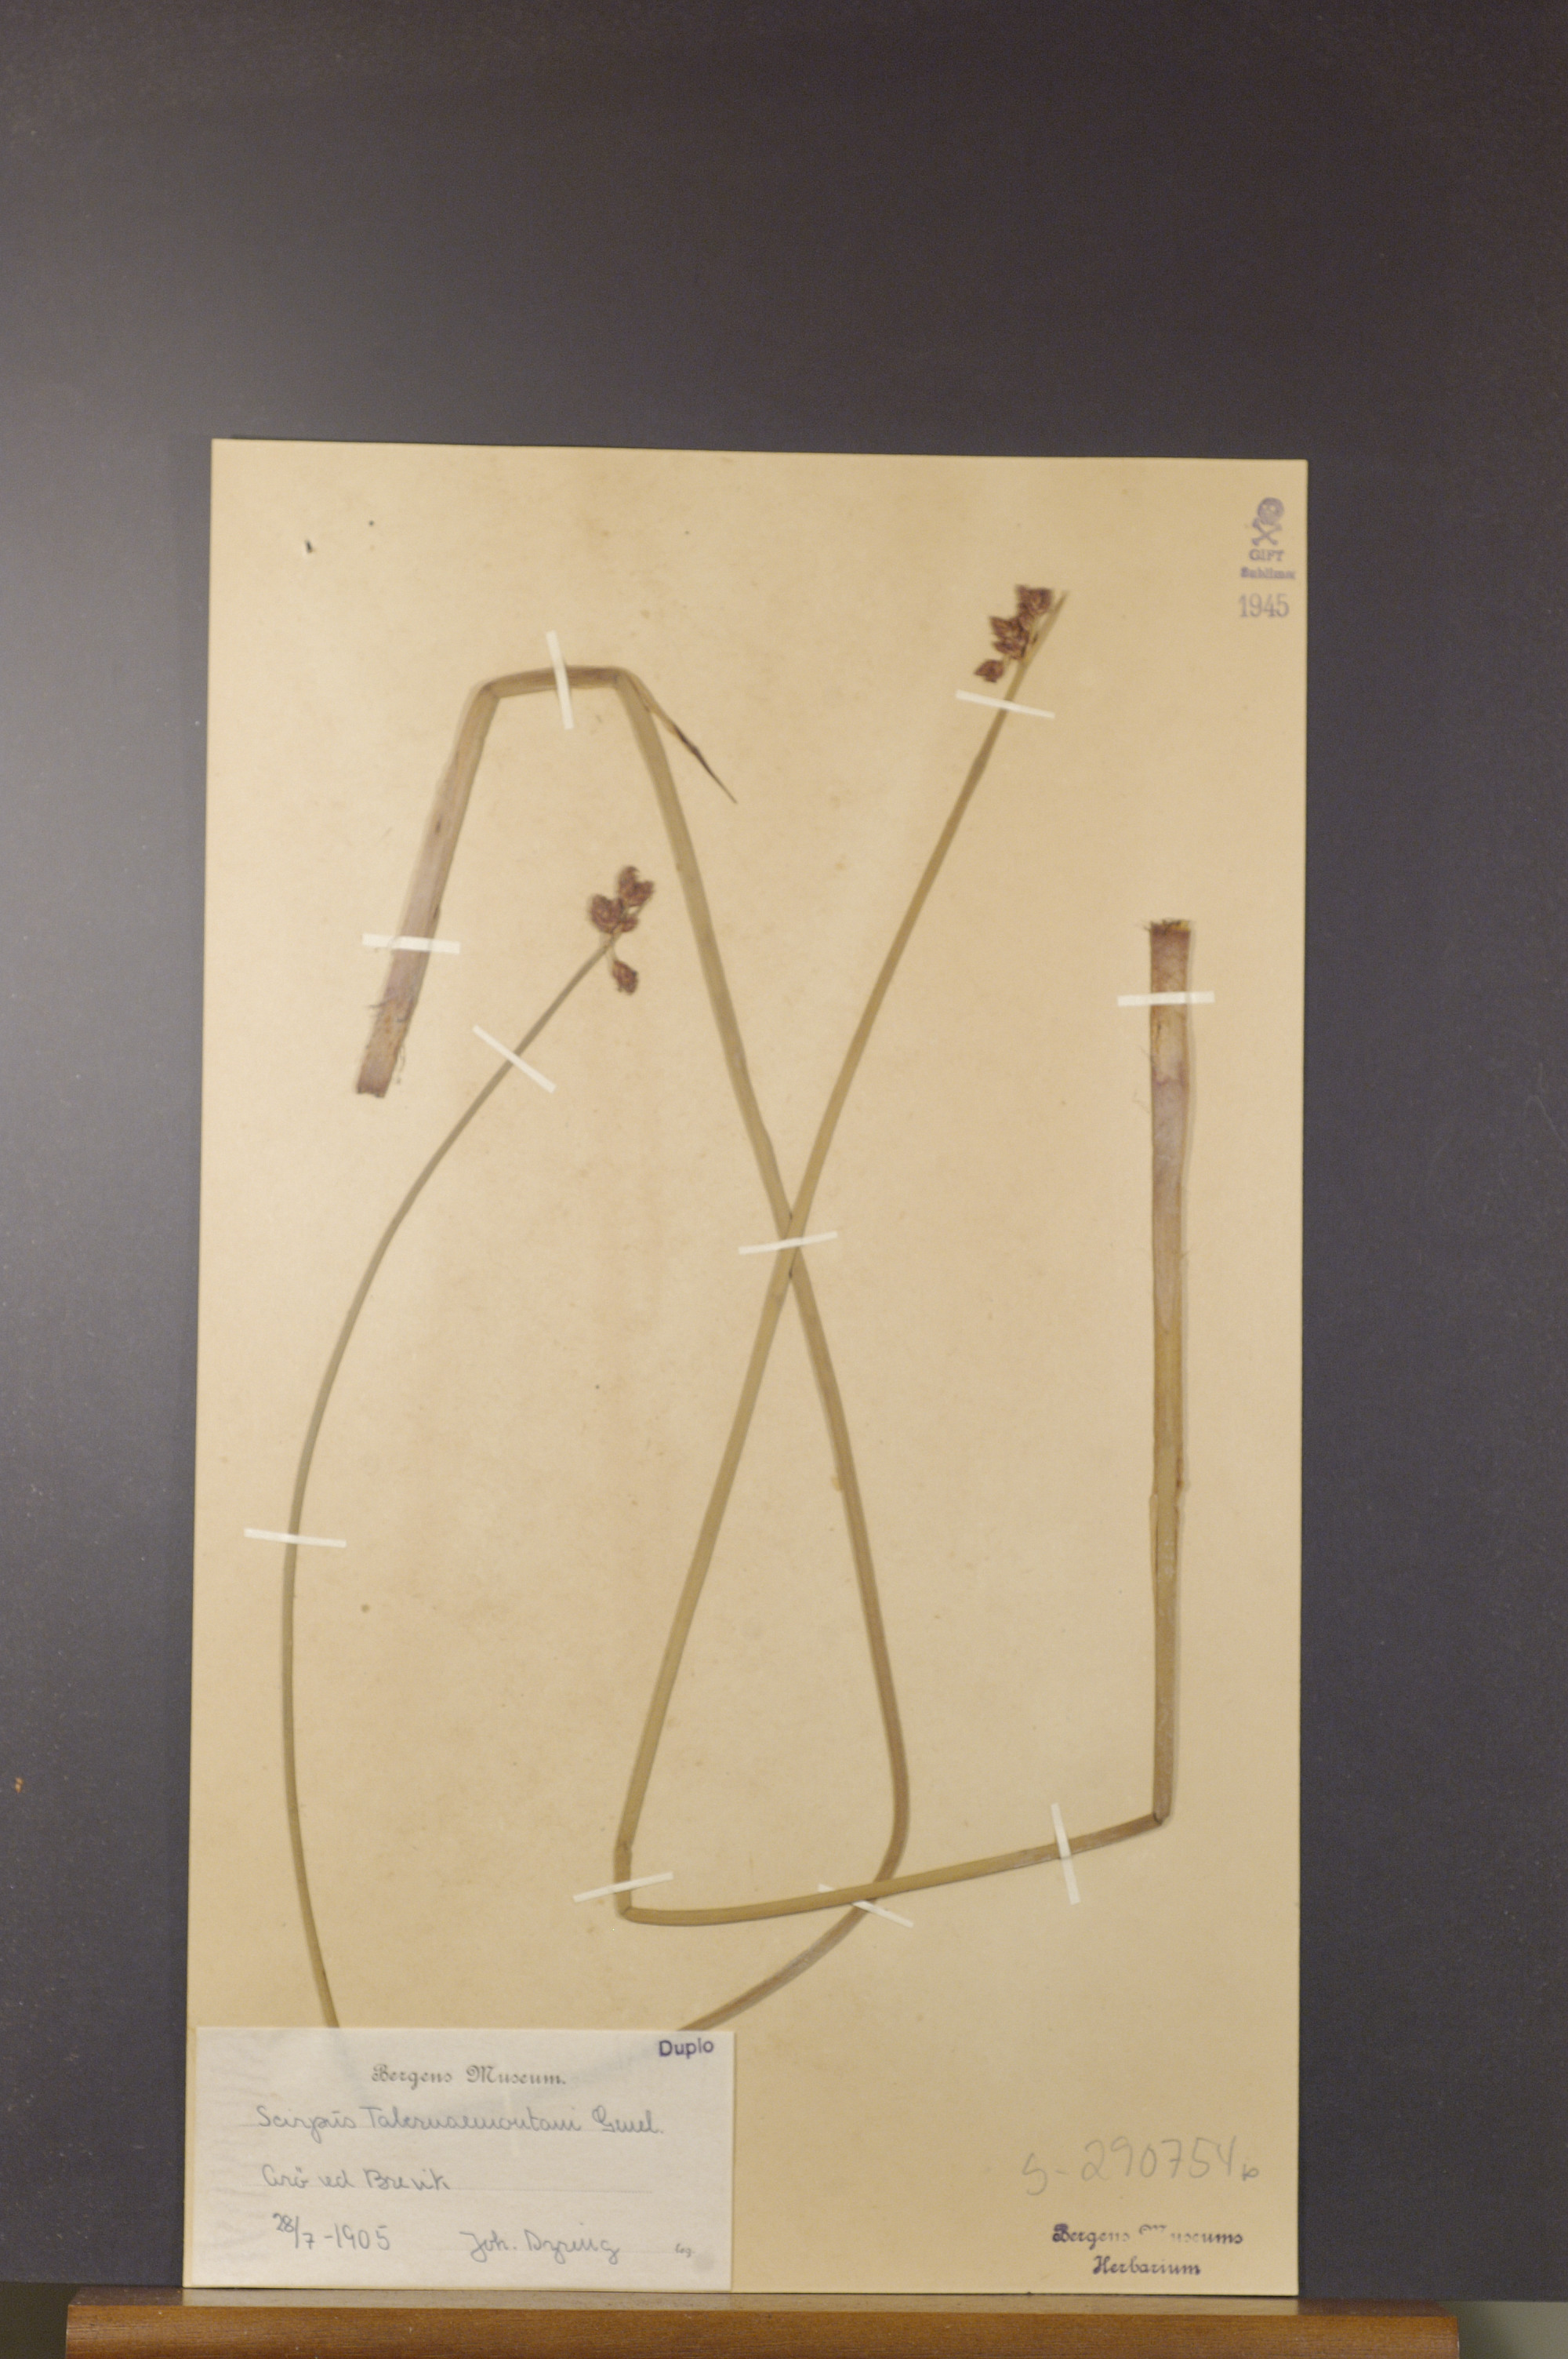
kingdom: Plantae
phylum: Tracheophyta
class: Liliopsida
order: Poales
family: Cyperaceae
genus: Schoenoplectus
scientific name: Schoenoplectus tabernaemontani
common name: Grey club-rush
